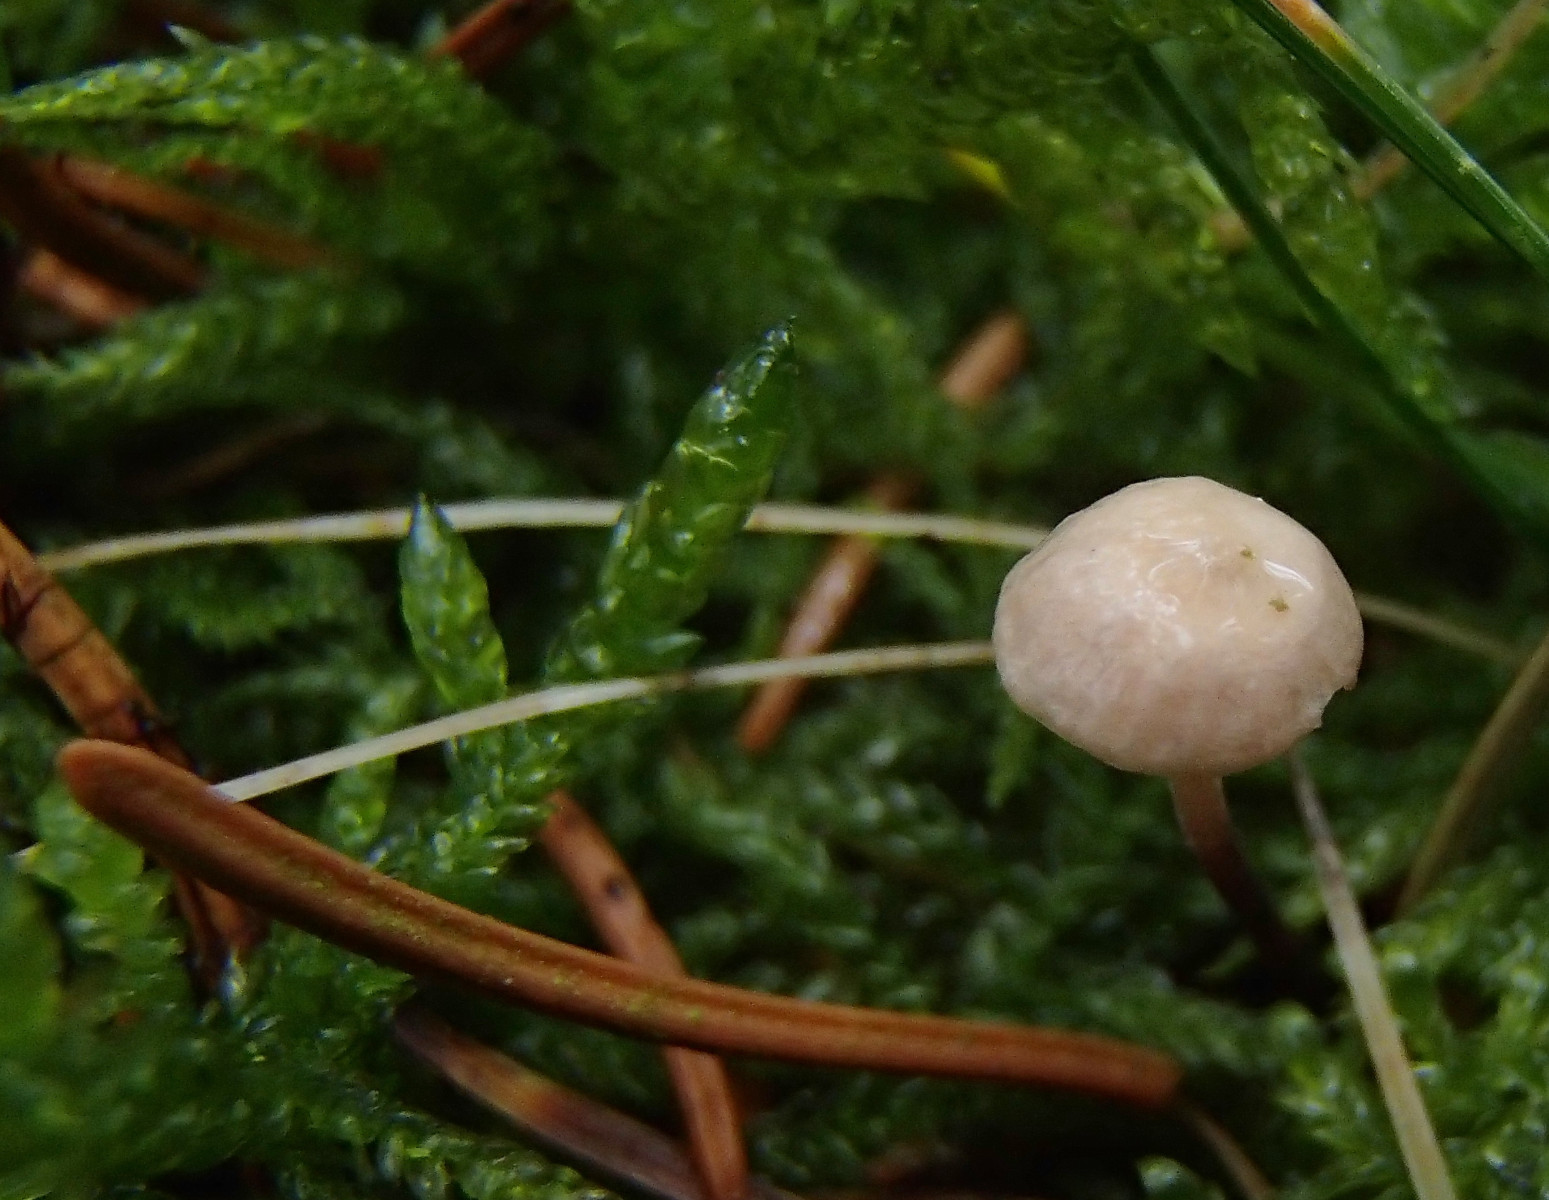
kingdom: Fungi
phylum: Basidiomycota
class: Agaricomycetes
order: Agaricales
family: Omphalotaceae
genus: Paragymnopus
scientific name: Paragymnopus perforans
